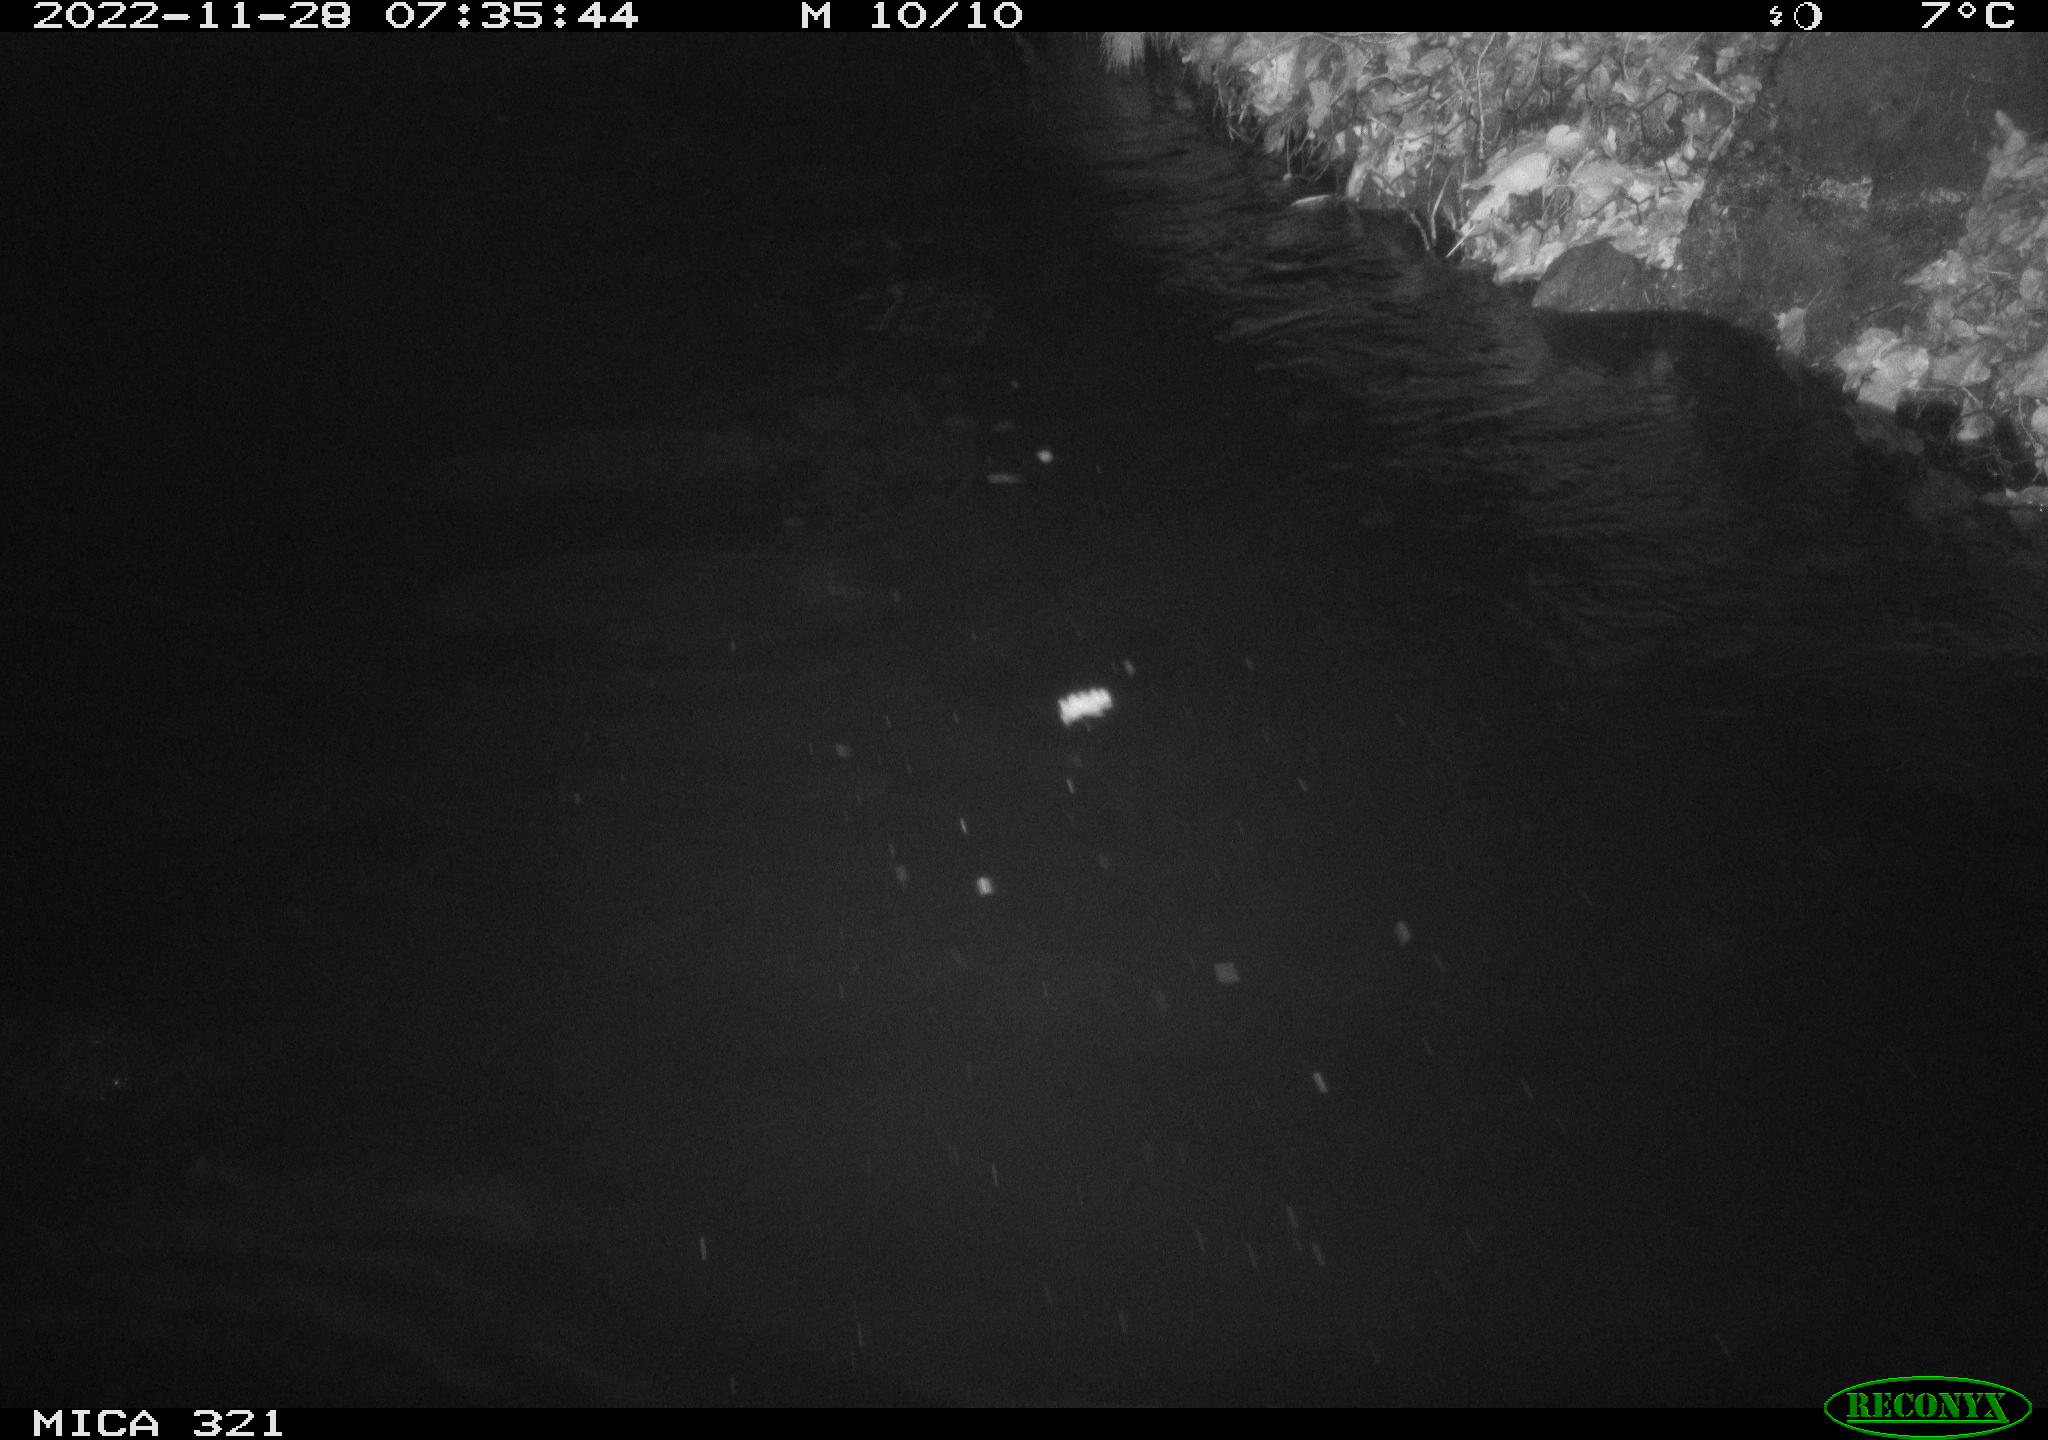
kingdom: Animalia
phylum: Chordata
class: Aves
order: Anseriformes
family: Anatidae
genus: Anas
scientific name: Anas
